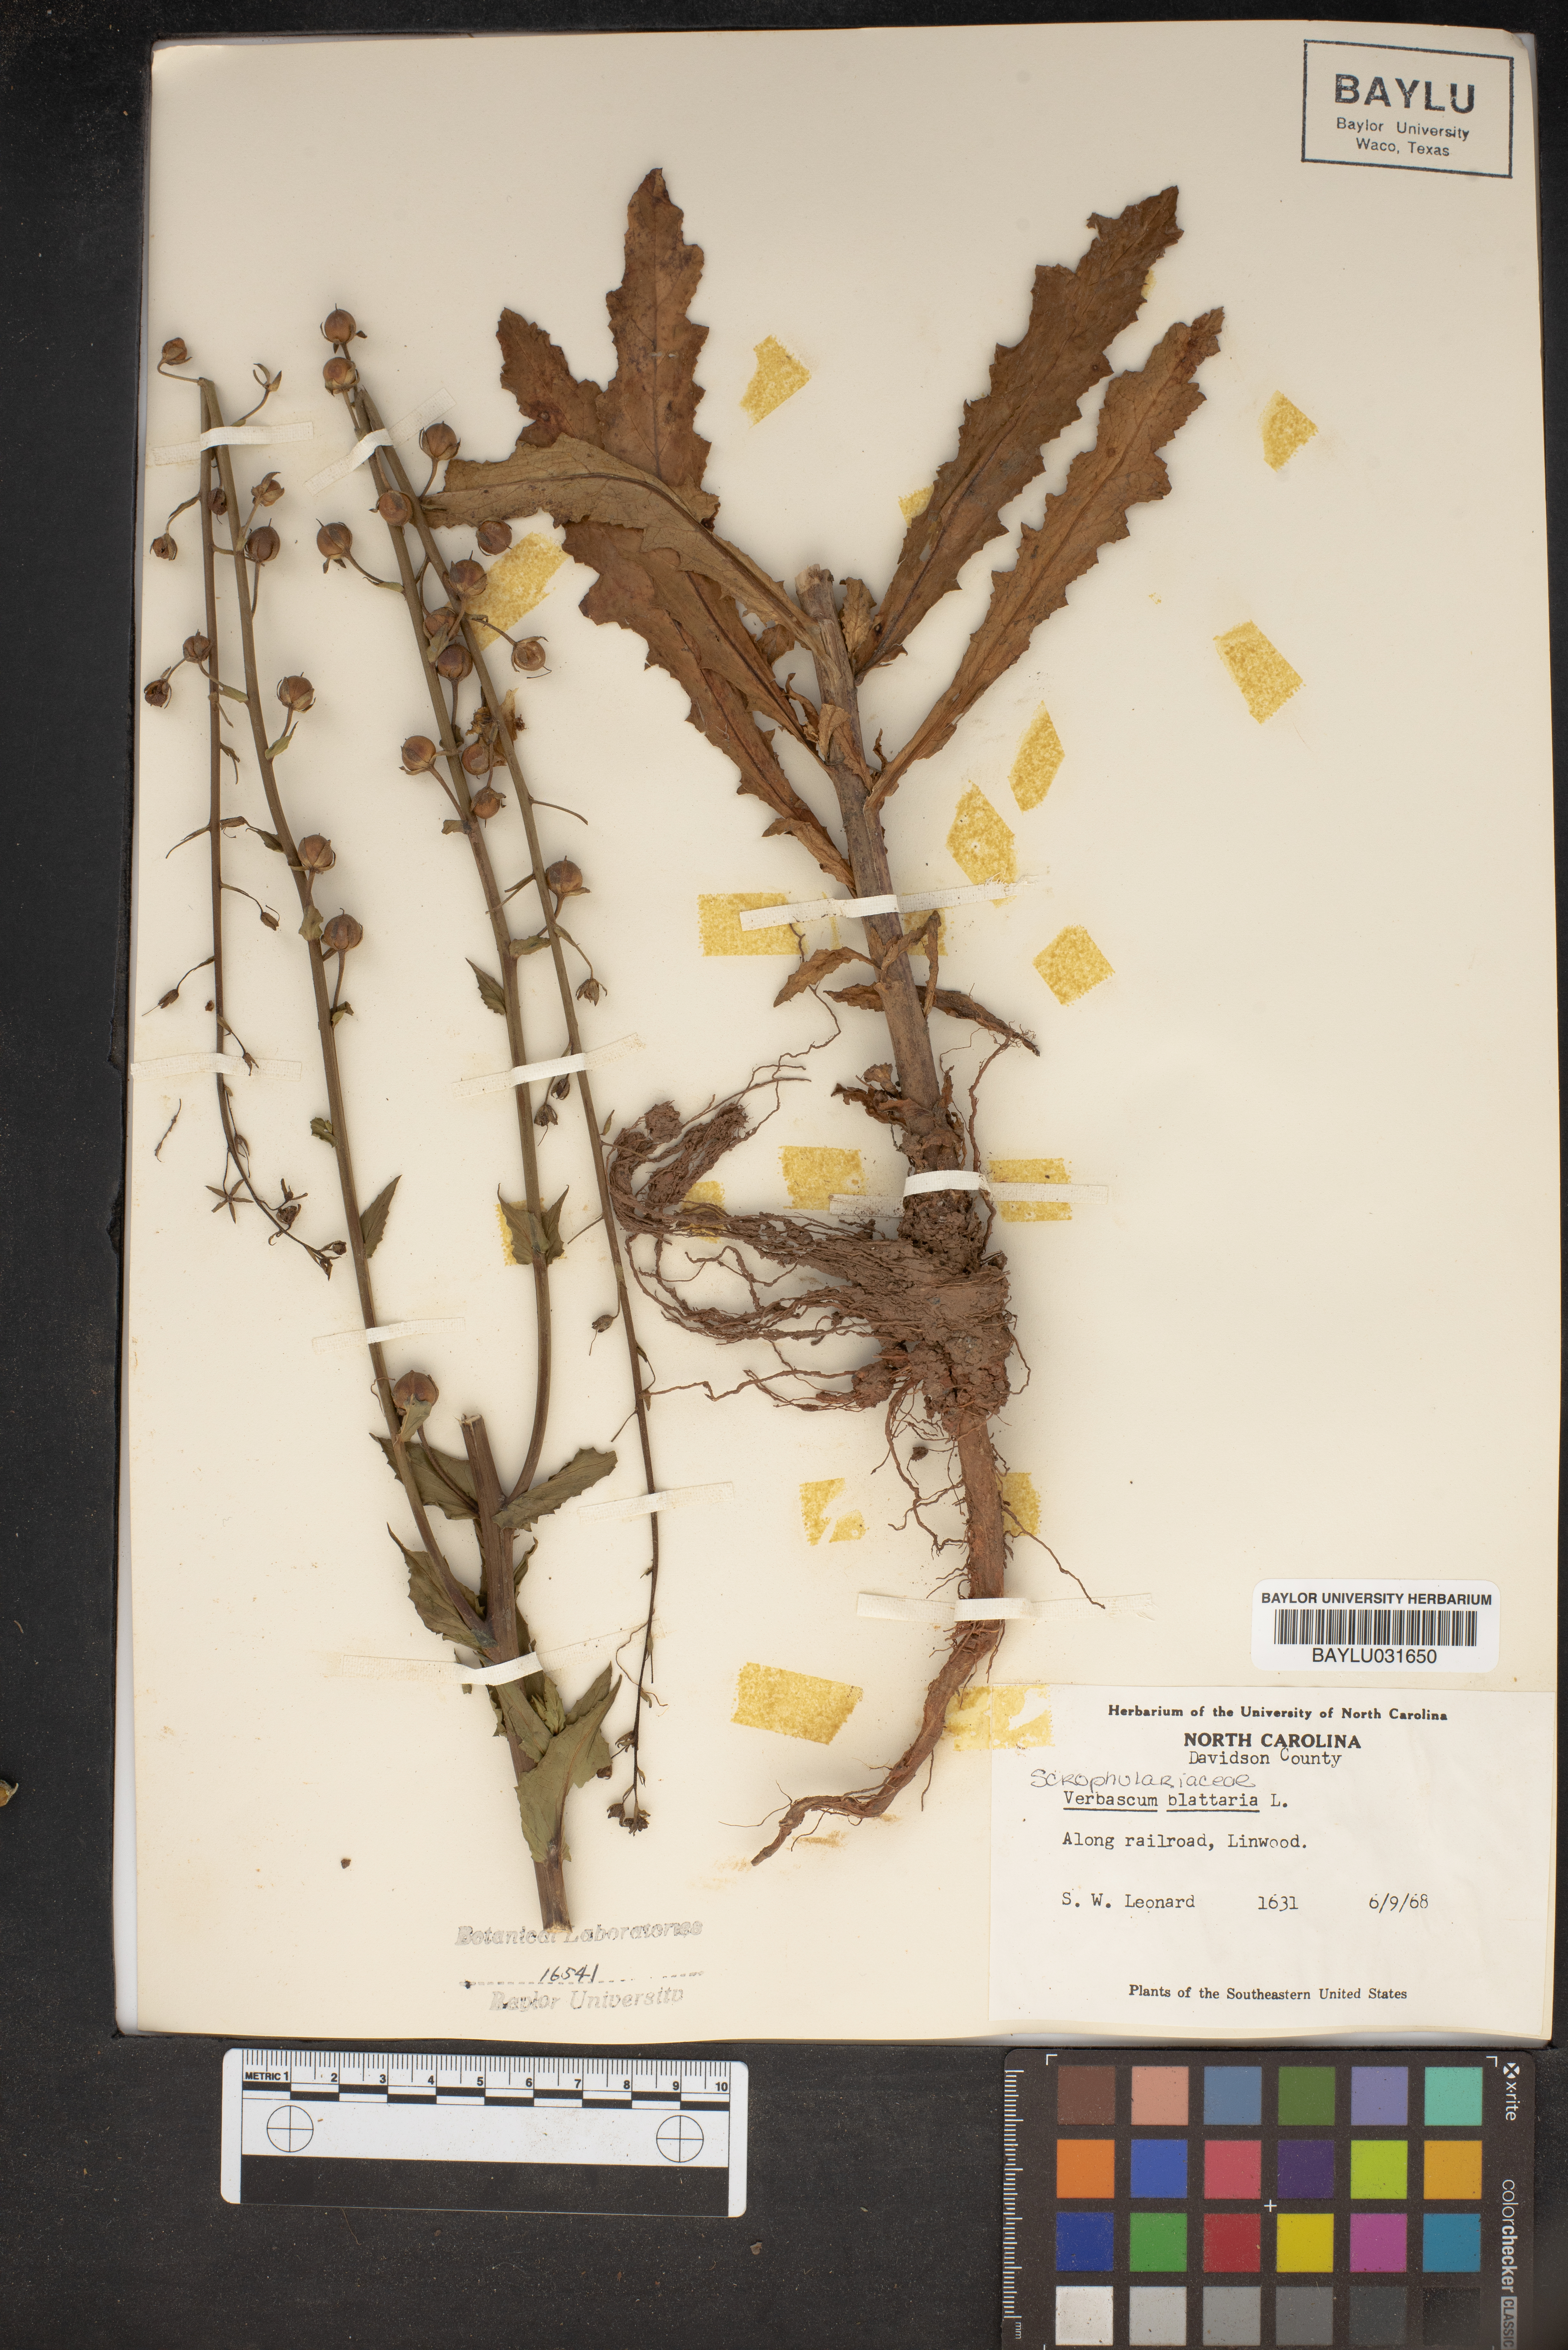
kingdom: Plantae
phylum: Tracheophyta
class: Magnoliopsida
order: Lamiales
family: Scrophulariaceae
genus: Verbascum
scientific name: Verbascum blattaria
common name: Moth mullein
